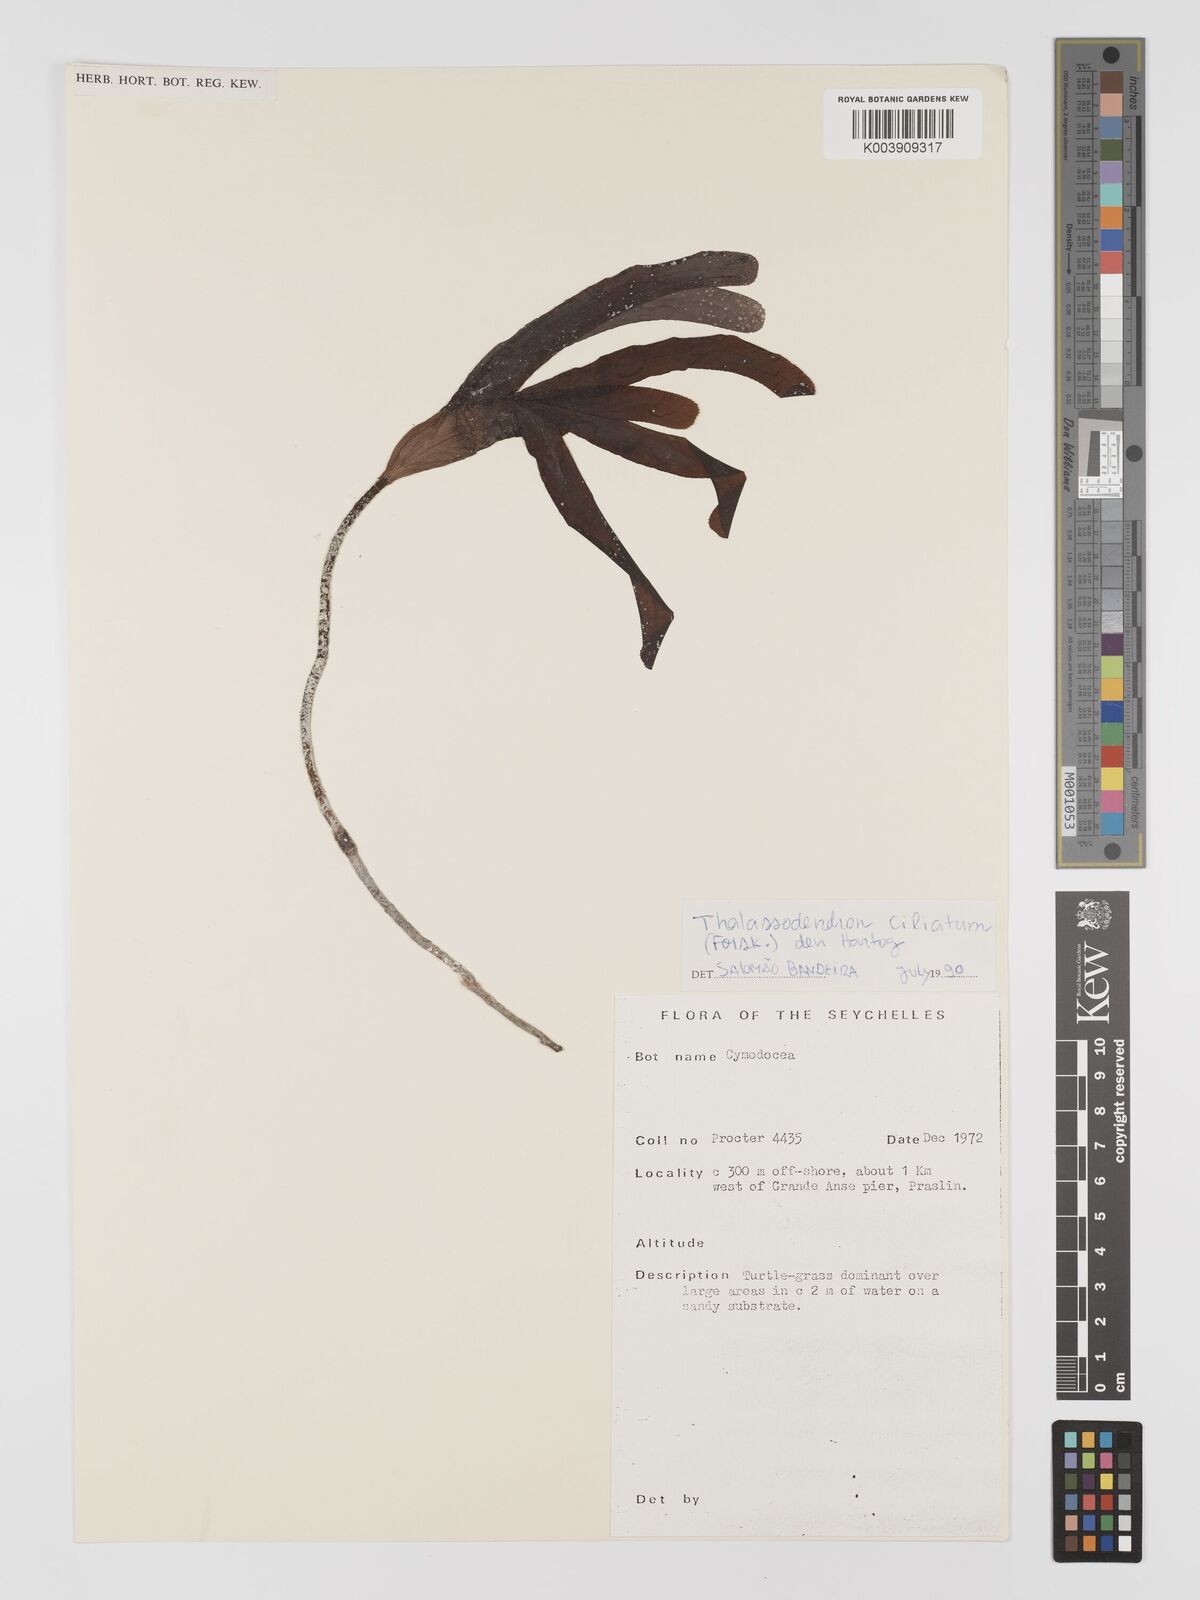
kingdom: Plantae
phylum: Tracheophyta
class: Liliopsida
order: Alismatales
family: Cymodoceaceae
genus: Thalassodendron
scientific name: Thalassodendron ciliatum
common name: Species code: tc
